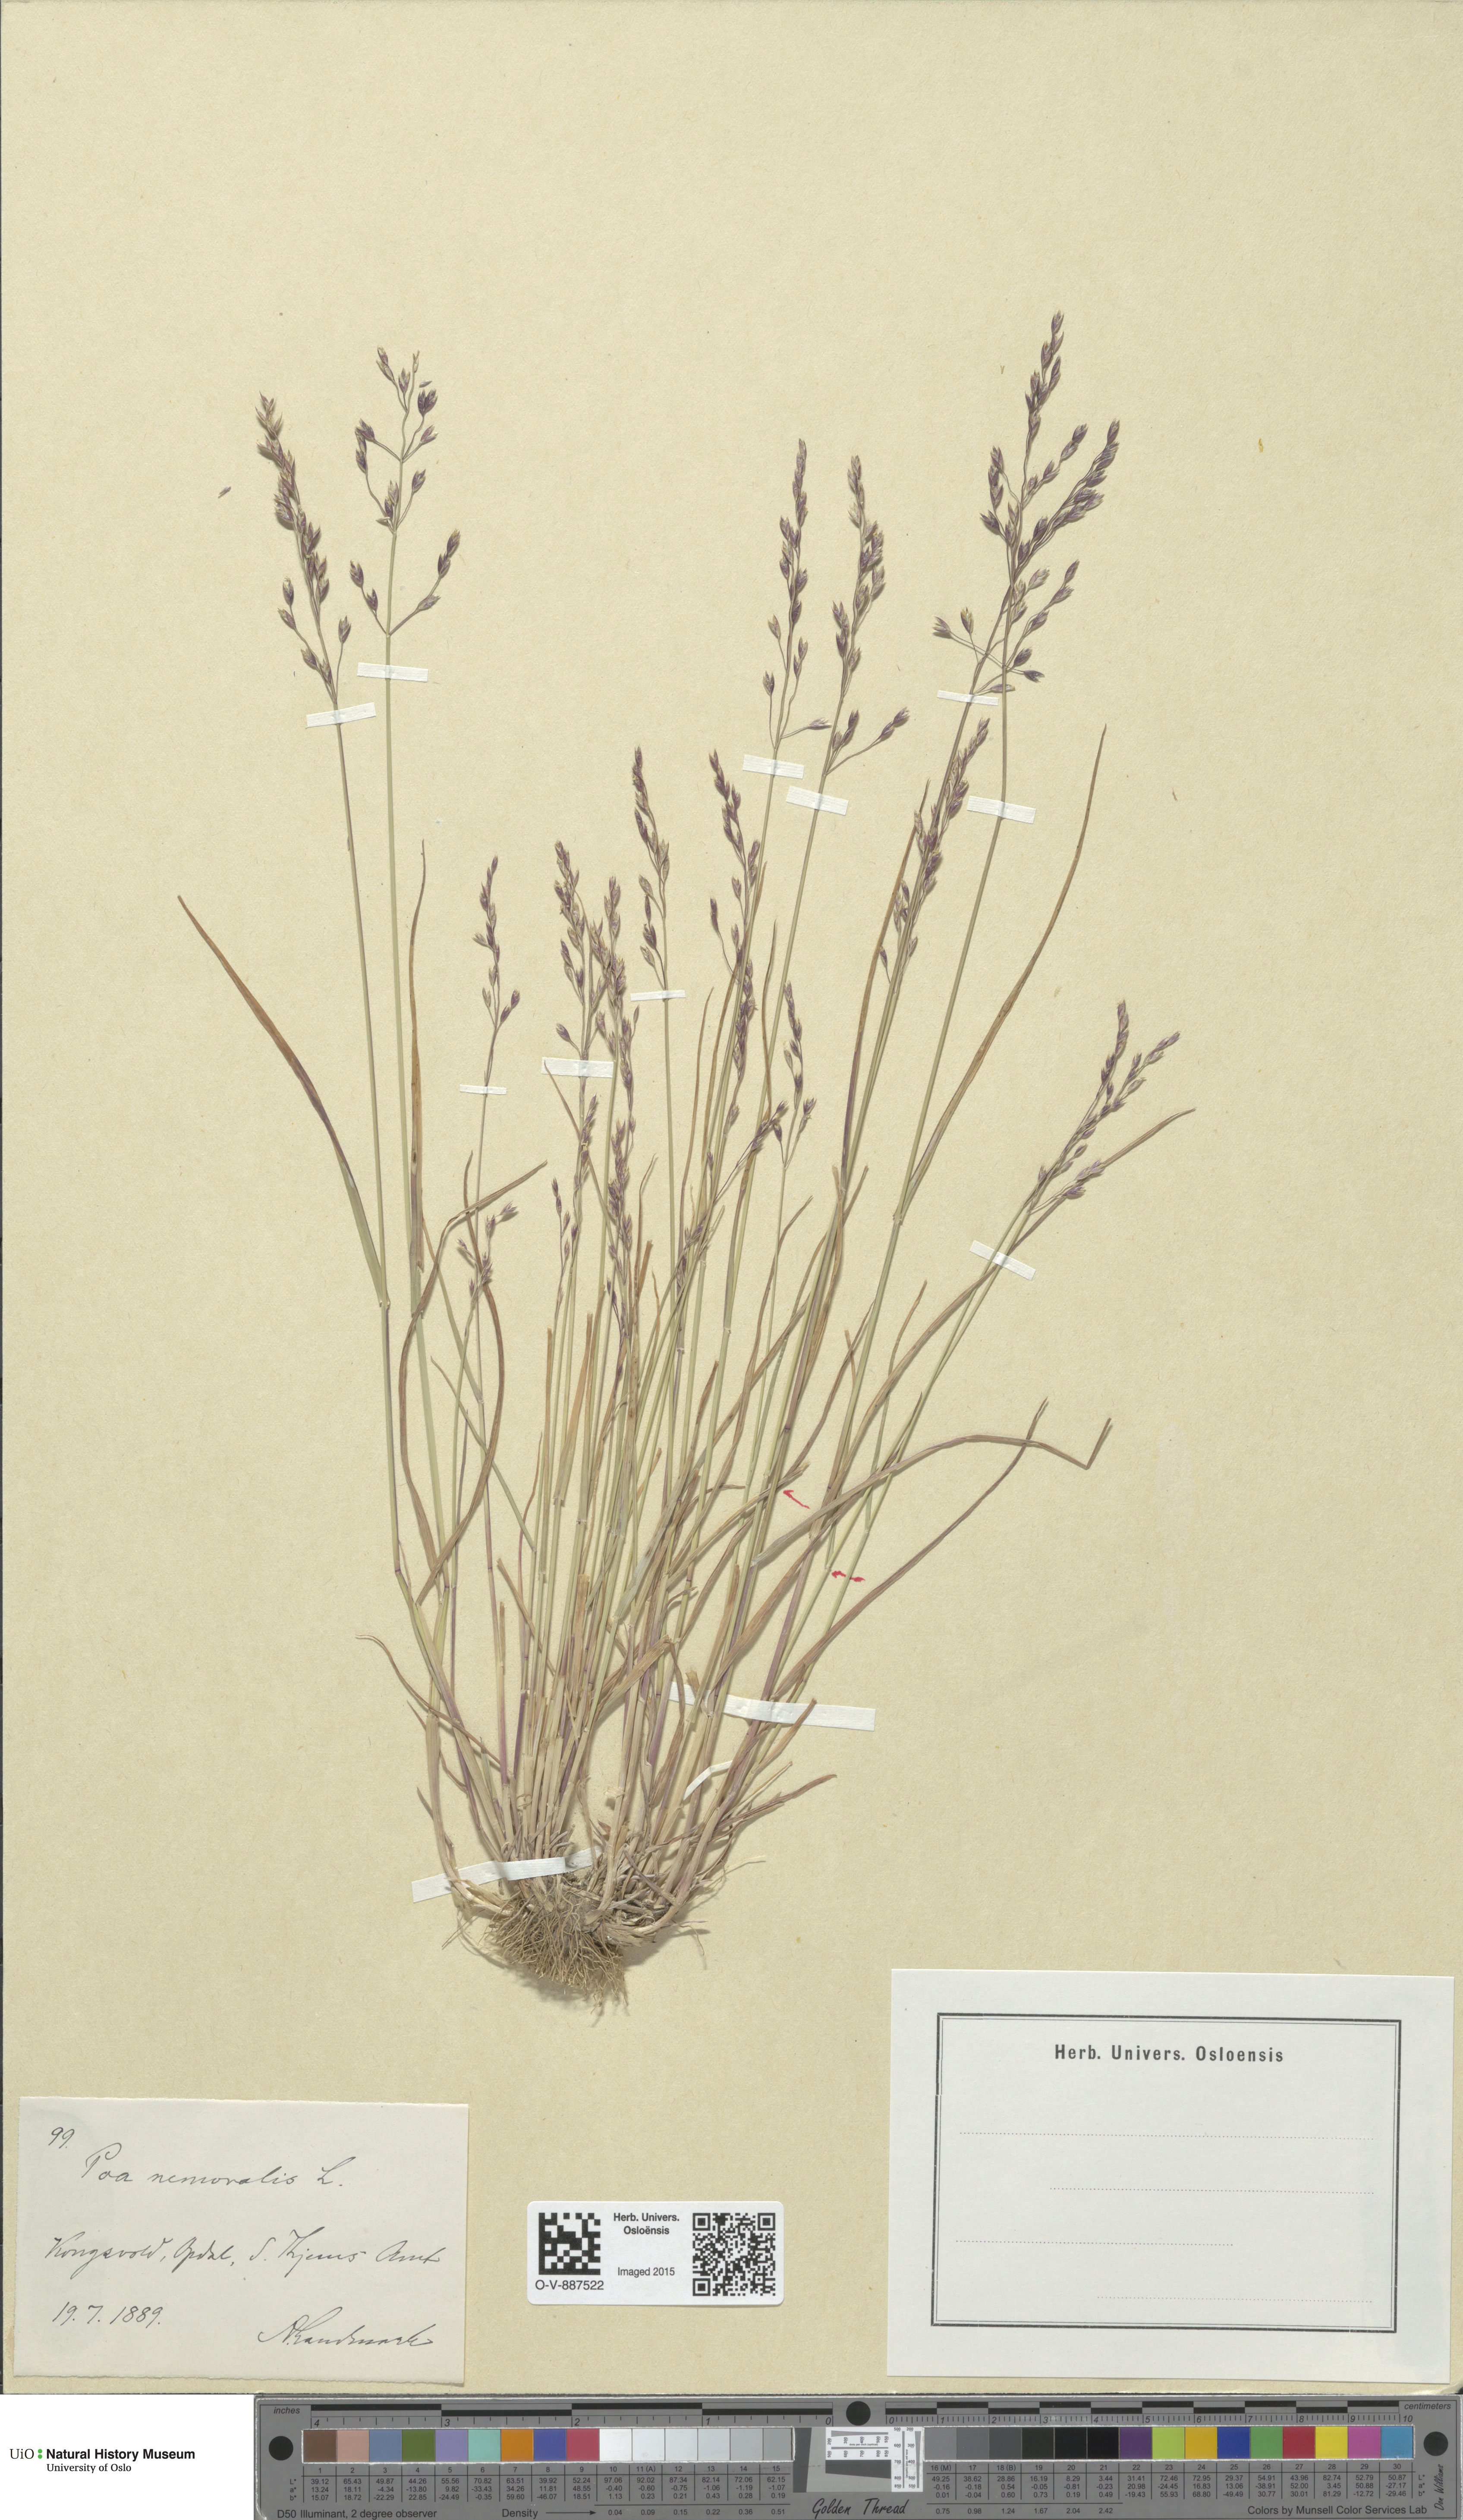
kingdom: Plantae
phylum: Tracheophyta
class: Liliopsida
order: Poales
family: Poaceae
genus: Poa
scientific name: Poa nemoralis
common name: Wood bluegrass
